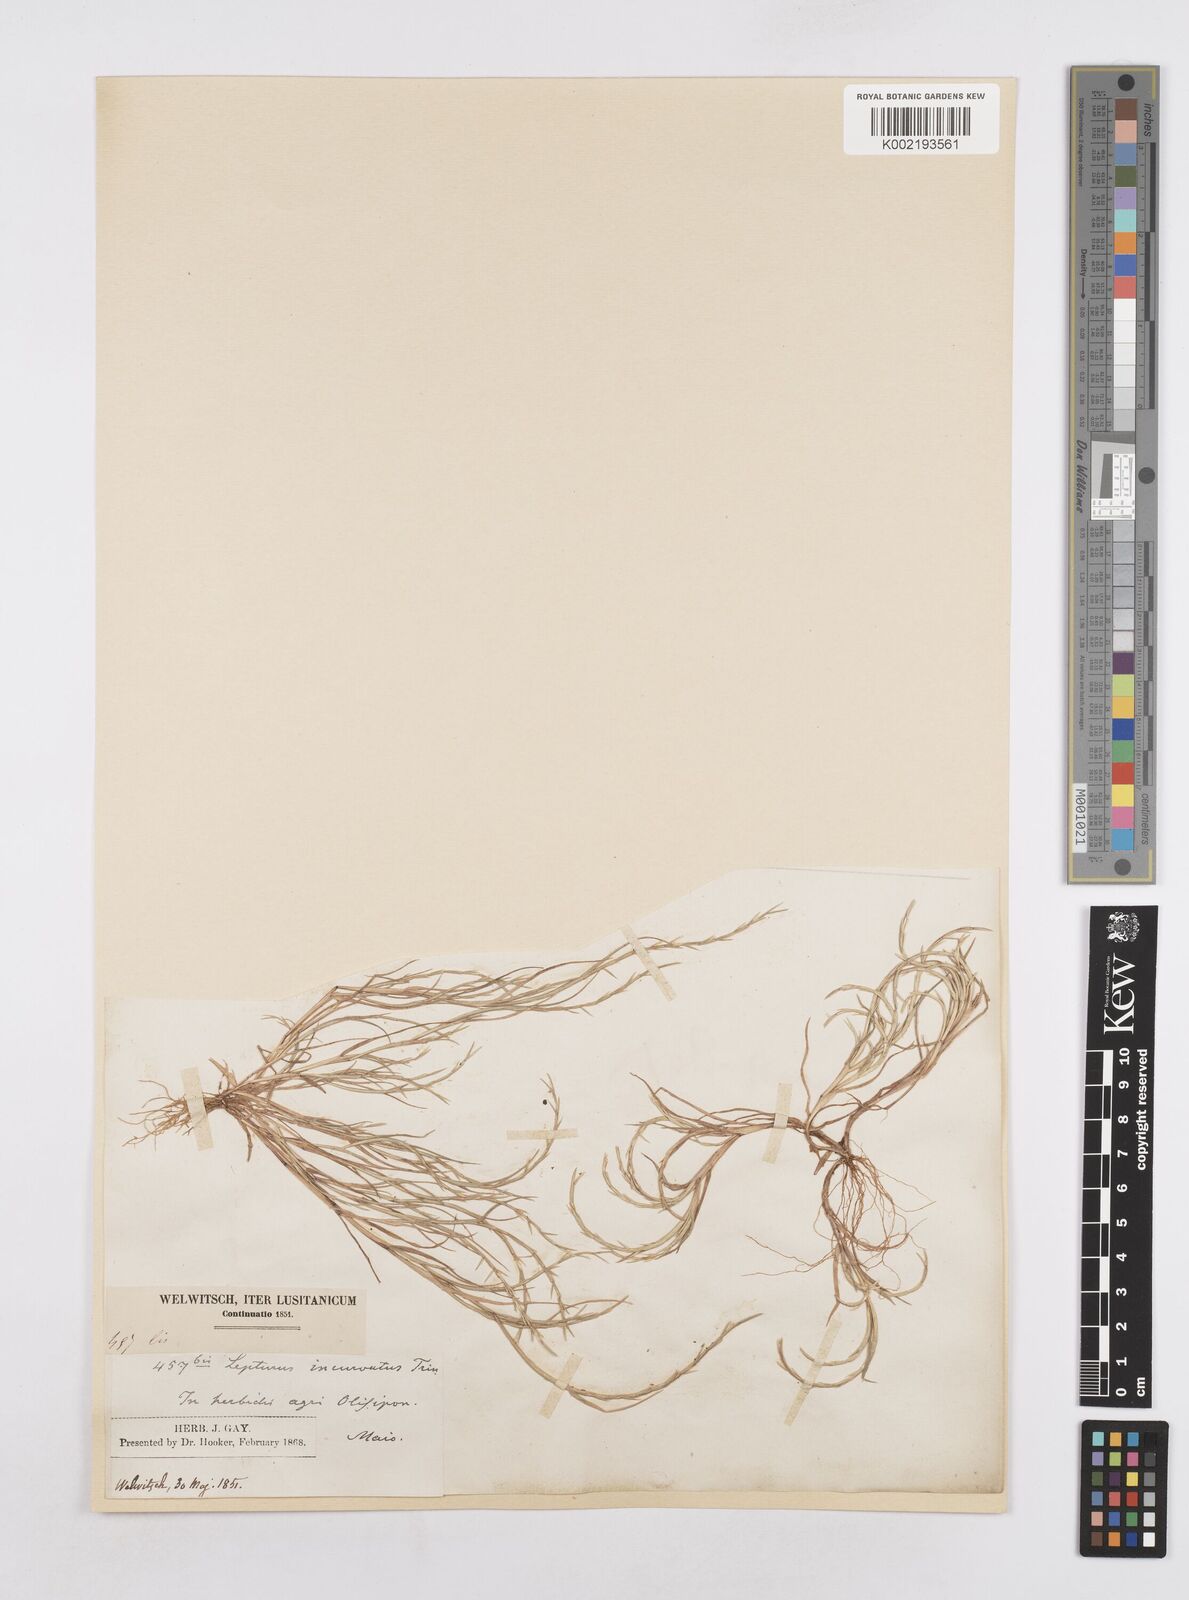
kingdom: Plantae
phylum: Tracheophyta
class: Liliopsida
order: Poales
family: Poaceae
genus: Parapholis
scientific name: Parapholis incurva
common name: Curved sicklegrass
